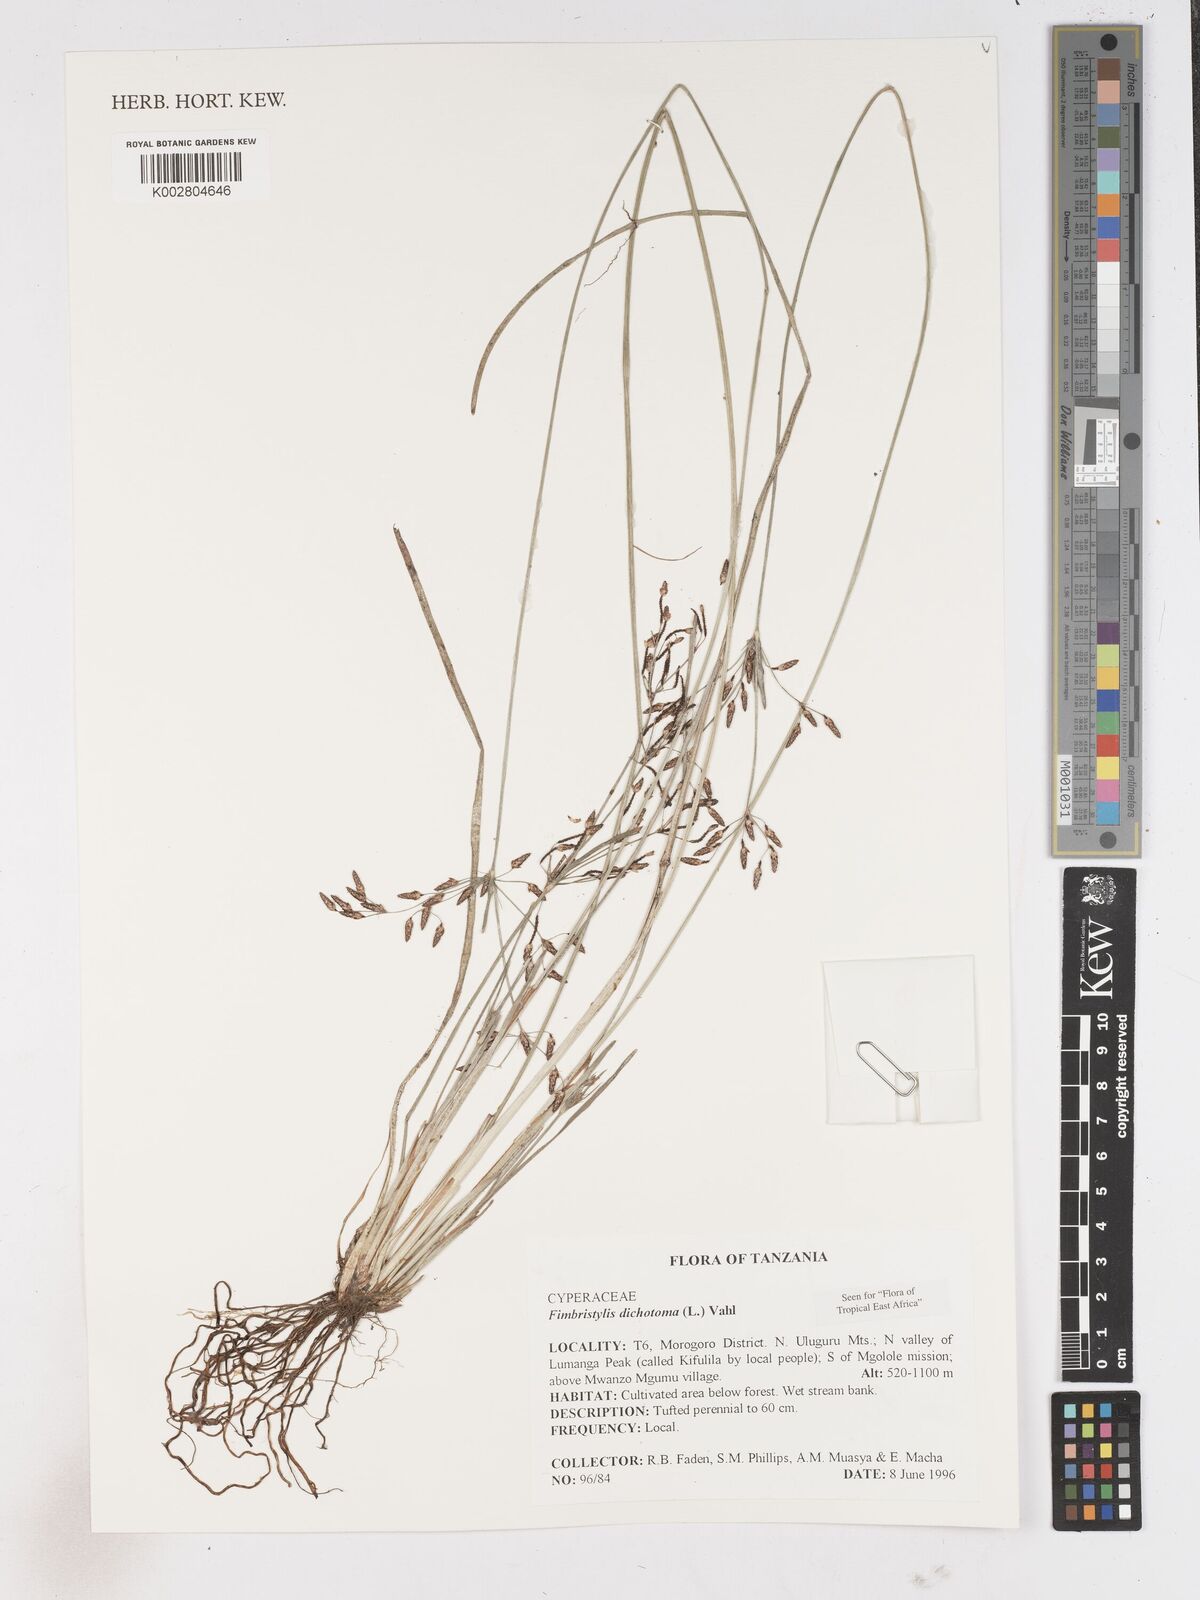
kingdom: Plantae
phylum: Tracheophyta
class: Liliopsida
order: Poales
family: Cyperaceae
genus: Fimbristylis
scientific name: Fimbristylis dichotoma
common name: Forked fimbry
